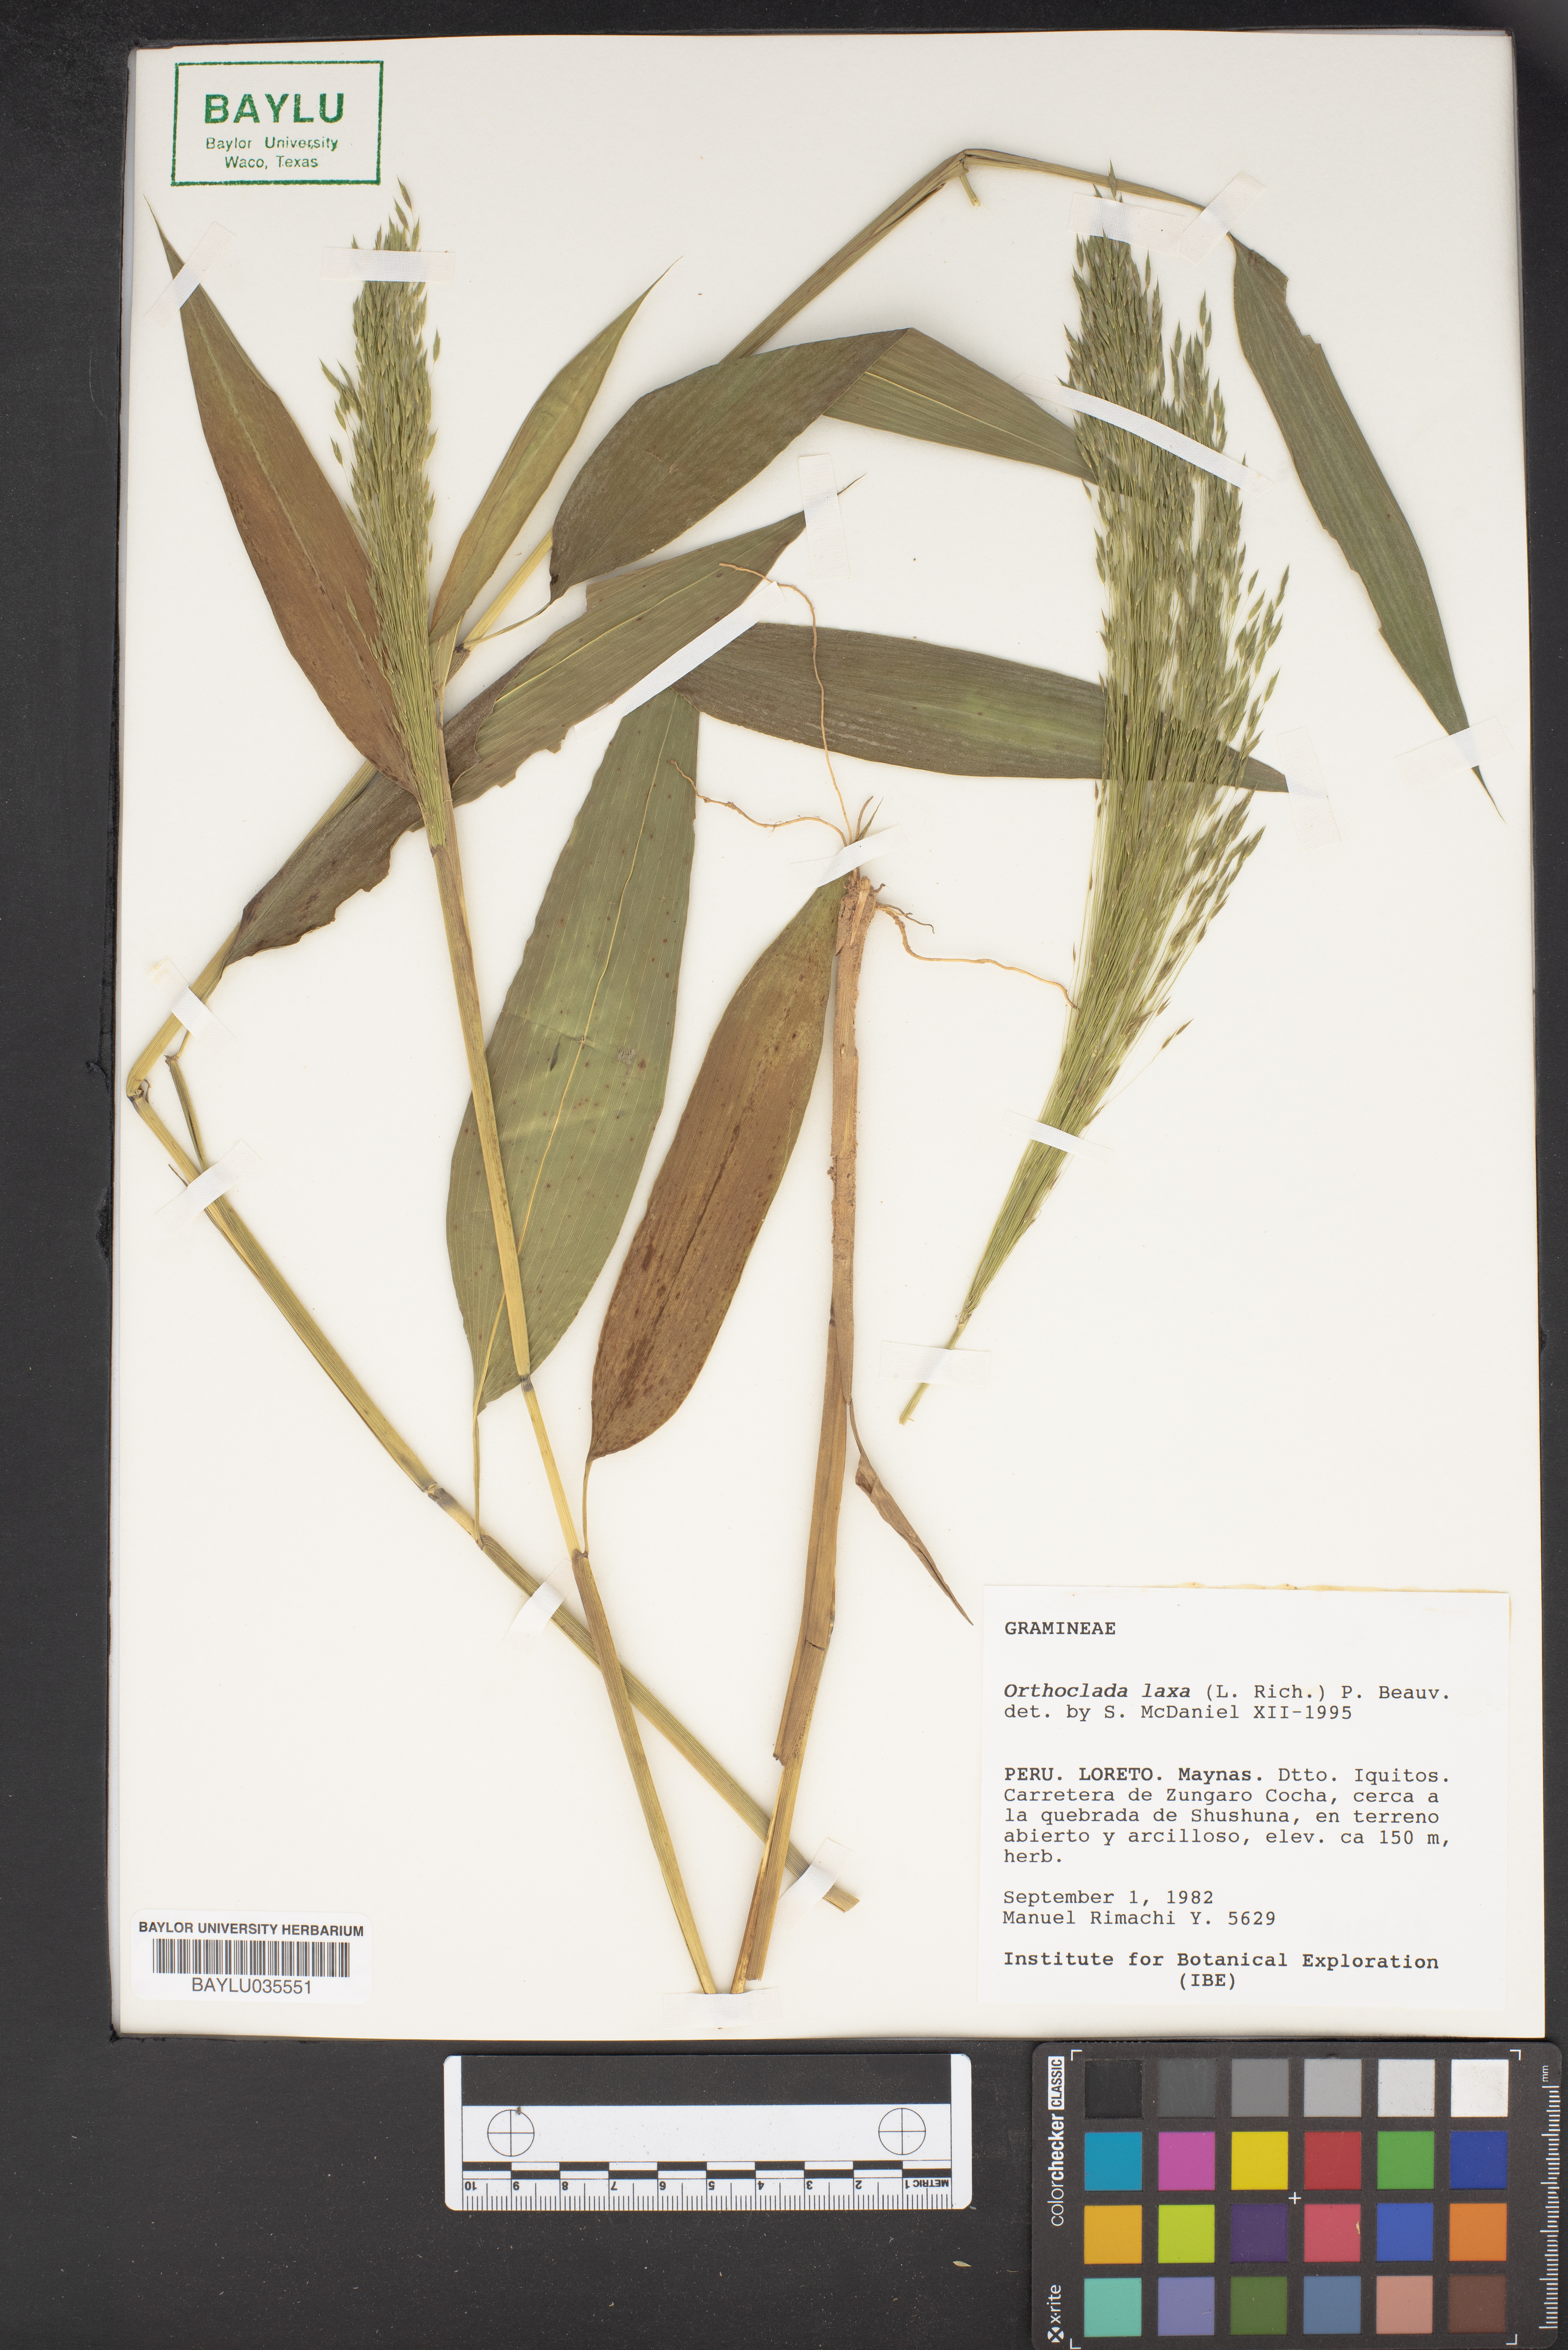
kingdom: Plantae
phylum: Tracheophyta
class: Liliopsida
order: Poales
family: Poaceae
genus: Orthoclada
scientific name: Orthoclada laxa
